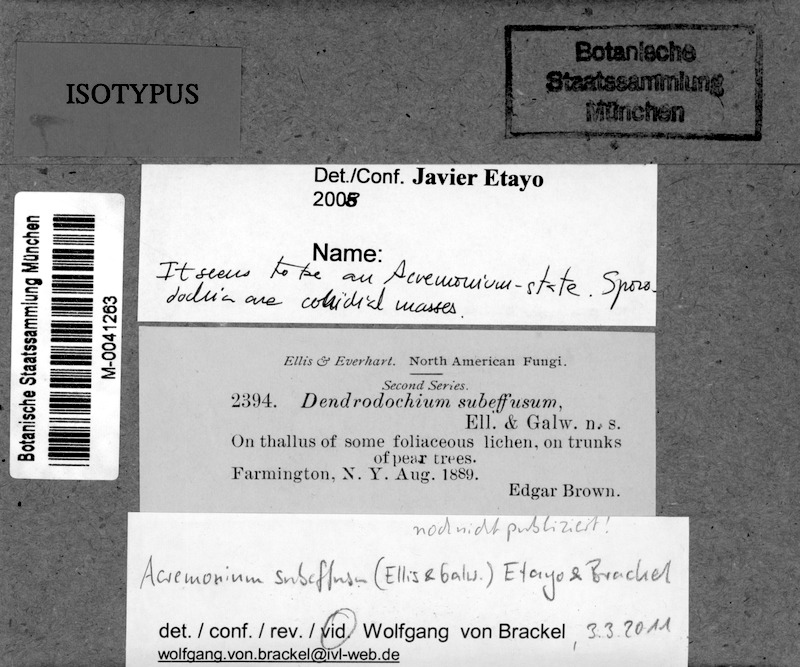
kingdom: Fungi
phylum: Ascomycota
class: Candelariomycetes
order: Candelariales
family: Candelariaceae
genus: Candelaria
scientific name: Candelaria concolor
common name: Candleflame lichen
